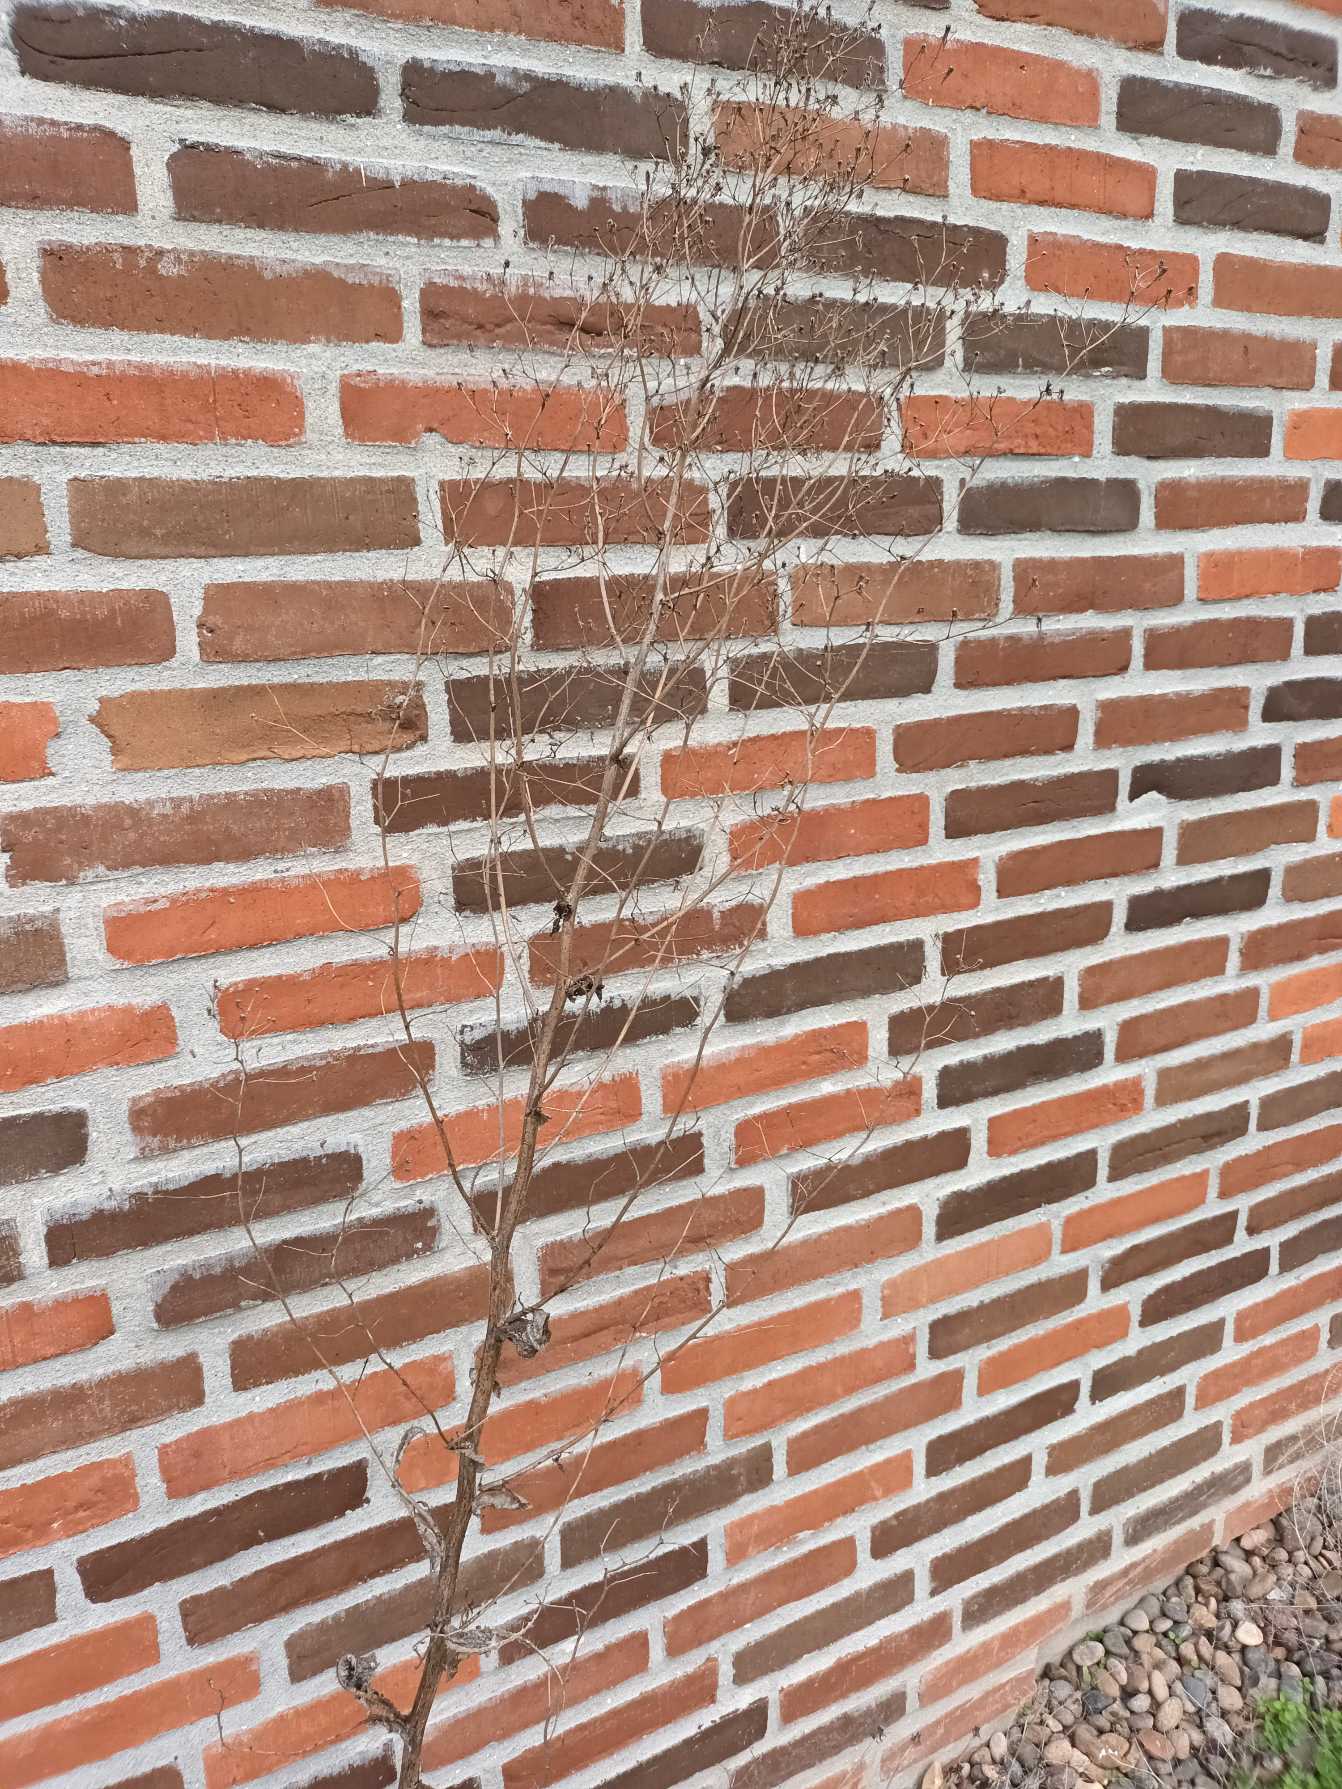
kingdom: Plantae
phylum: Tracheophyta
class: Magnoliopsida
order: Asterales
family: Asteraceae
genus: Lactuca
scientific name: Lactuca serriola
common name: Tornet salat
